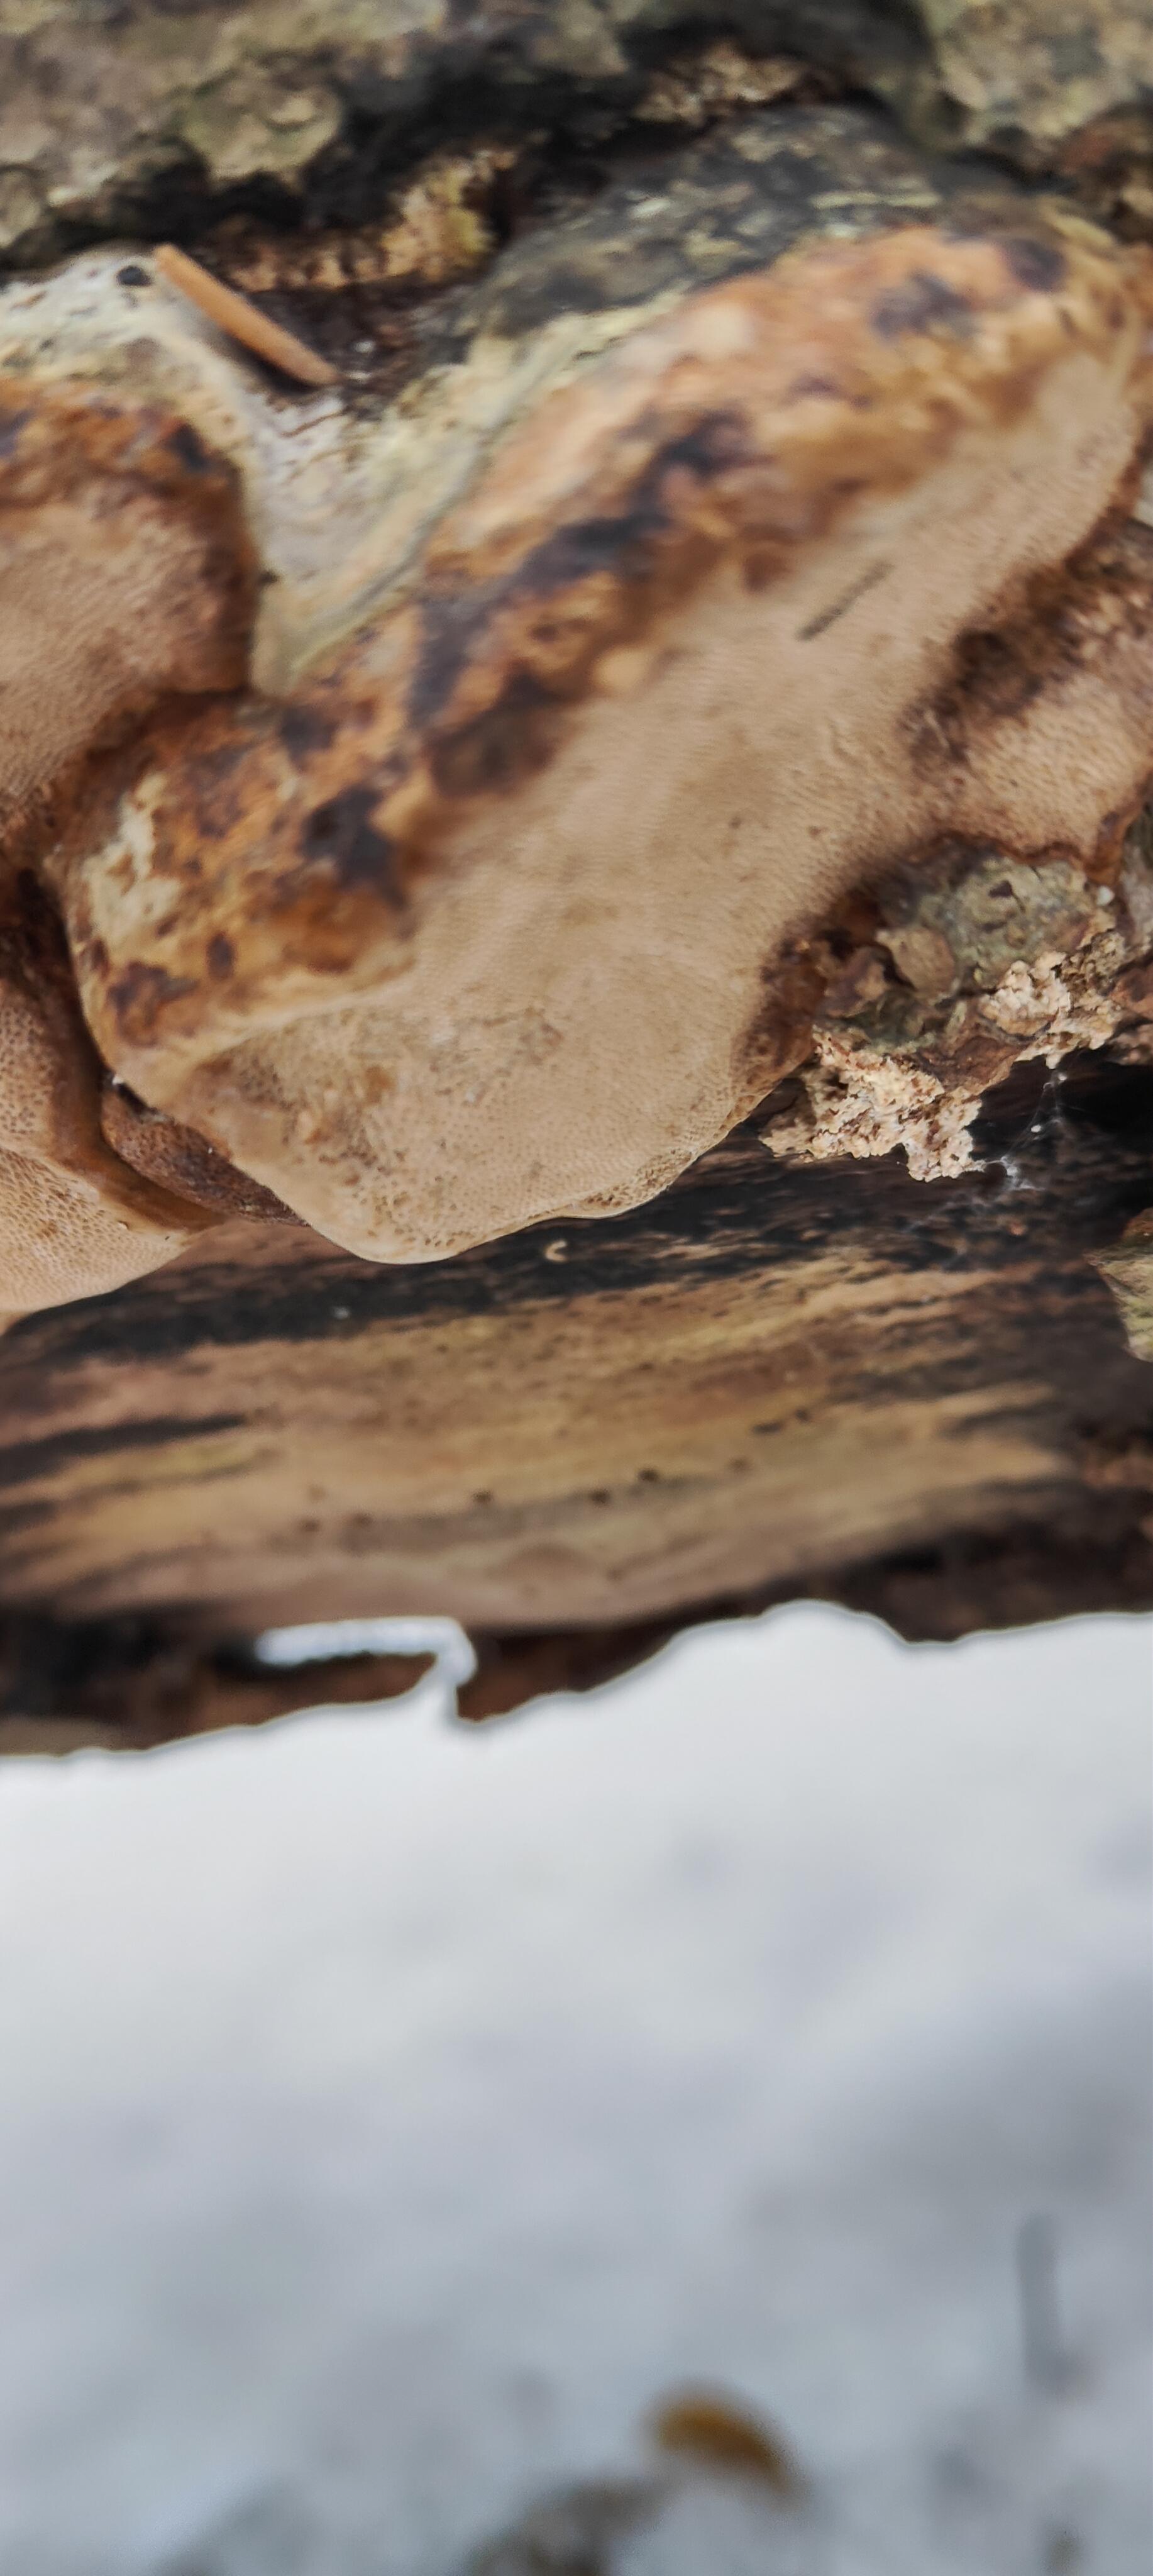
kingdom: Fungi
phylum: Basidiomycota
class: Agaricomycetes
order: Polyporales
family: Polyporaceae
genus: Fomes
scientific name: Fomes fomentarius
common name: tøndersvamp
